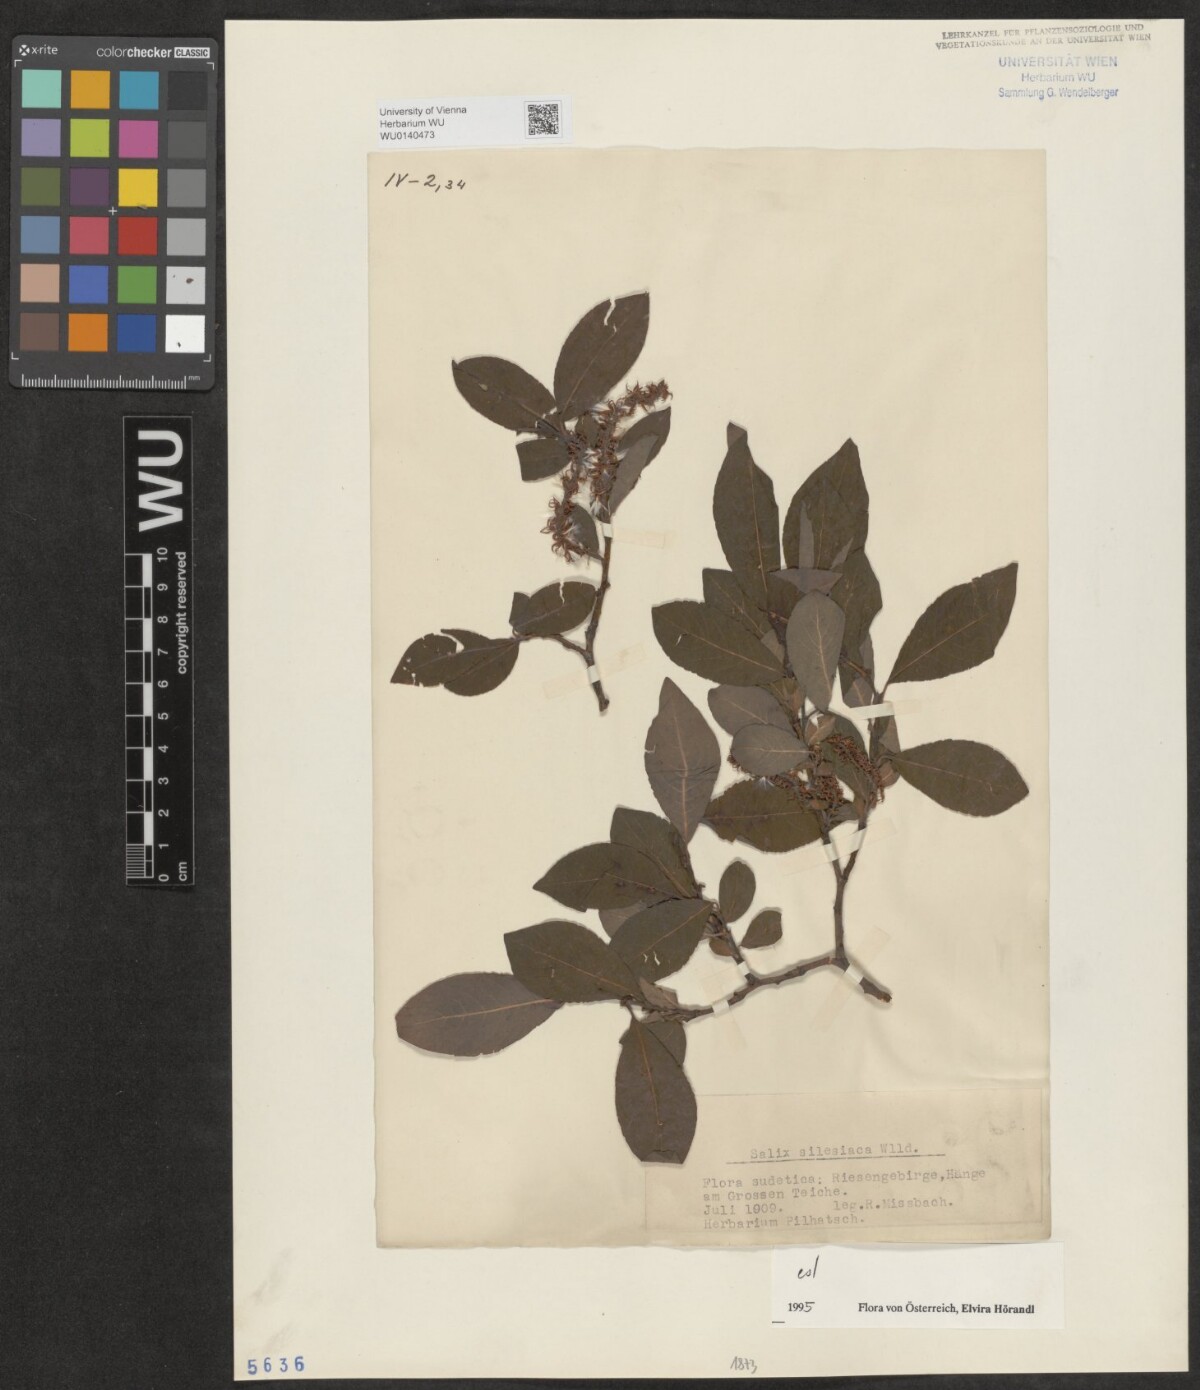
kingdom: Plantae
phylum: Tracheophyta
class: Magnoliopsida
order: Malpighiales
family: Salicaceae
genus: Salix
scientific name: Salix silesiaca
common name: Silesian willow
